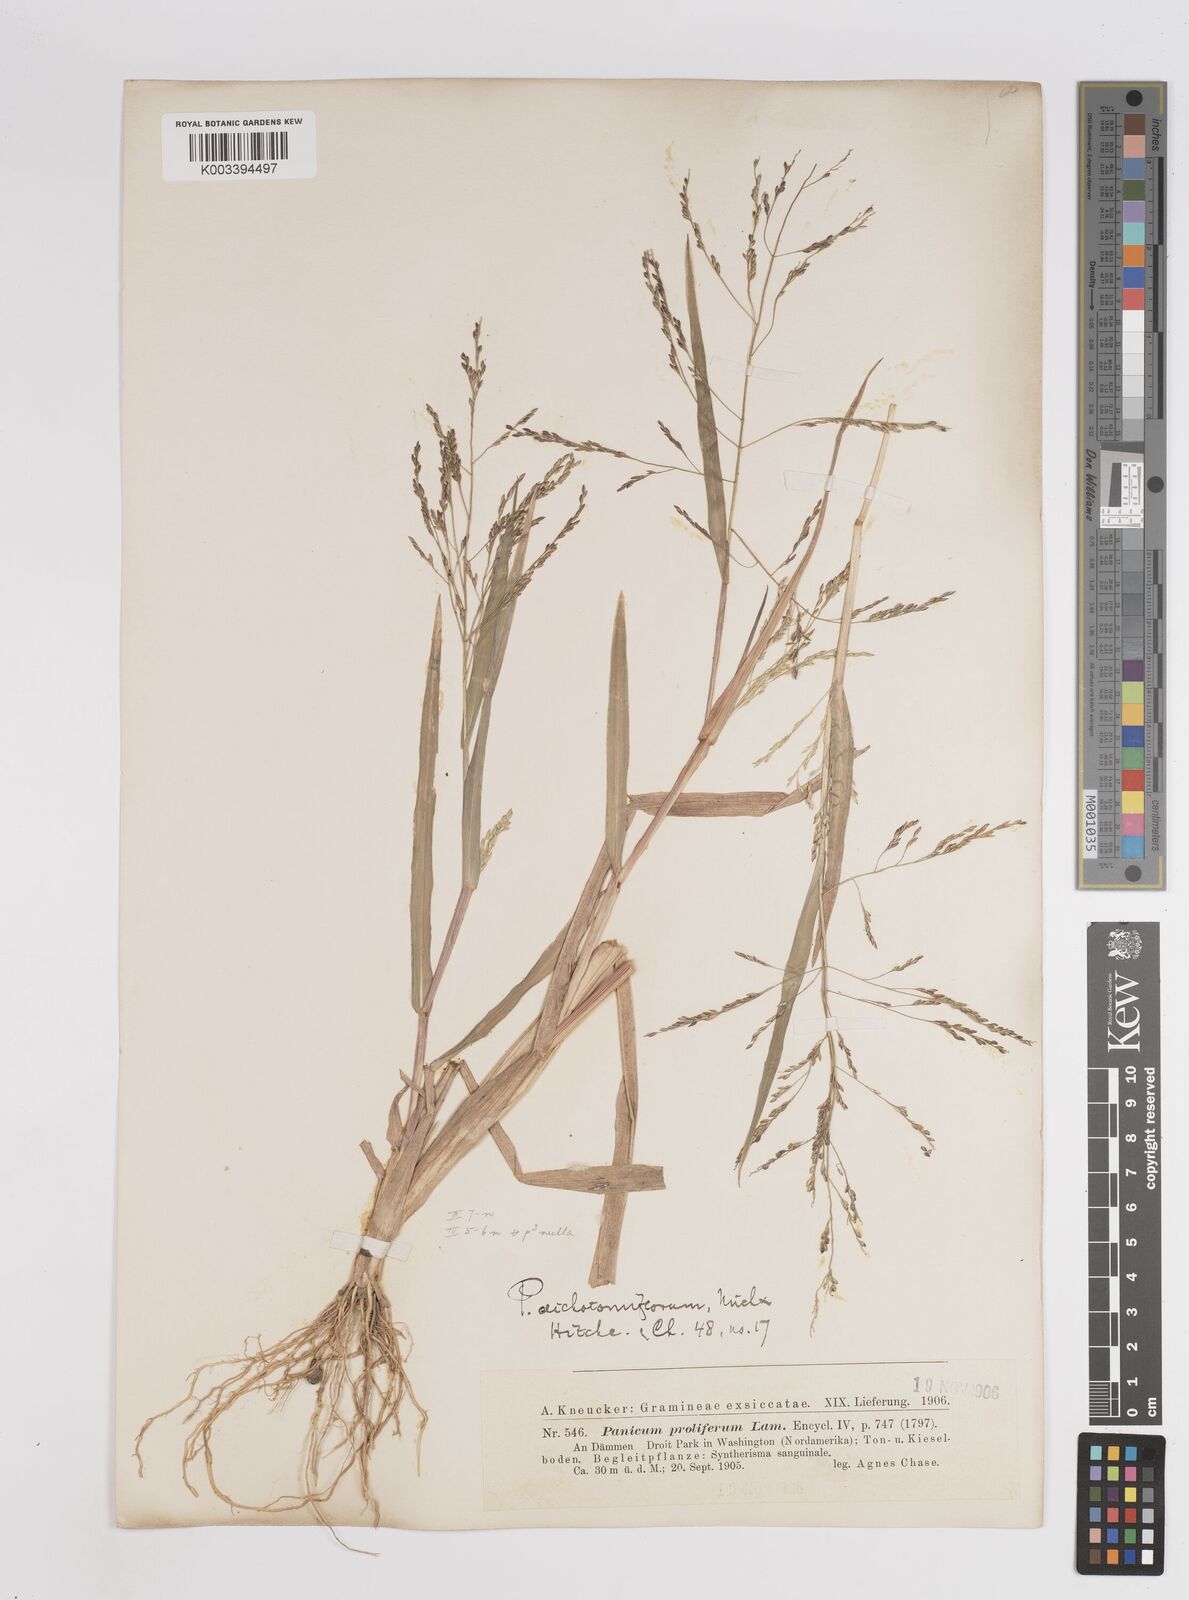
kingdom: Plantae
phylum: Tracheophyta
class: Liliopsida
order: Poales
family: Poaceae
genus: Panicum
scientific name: Panicum dichotomiflorum
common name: Autumn millet
